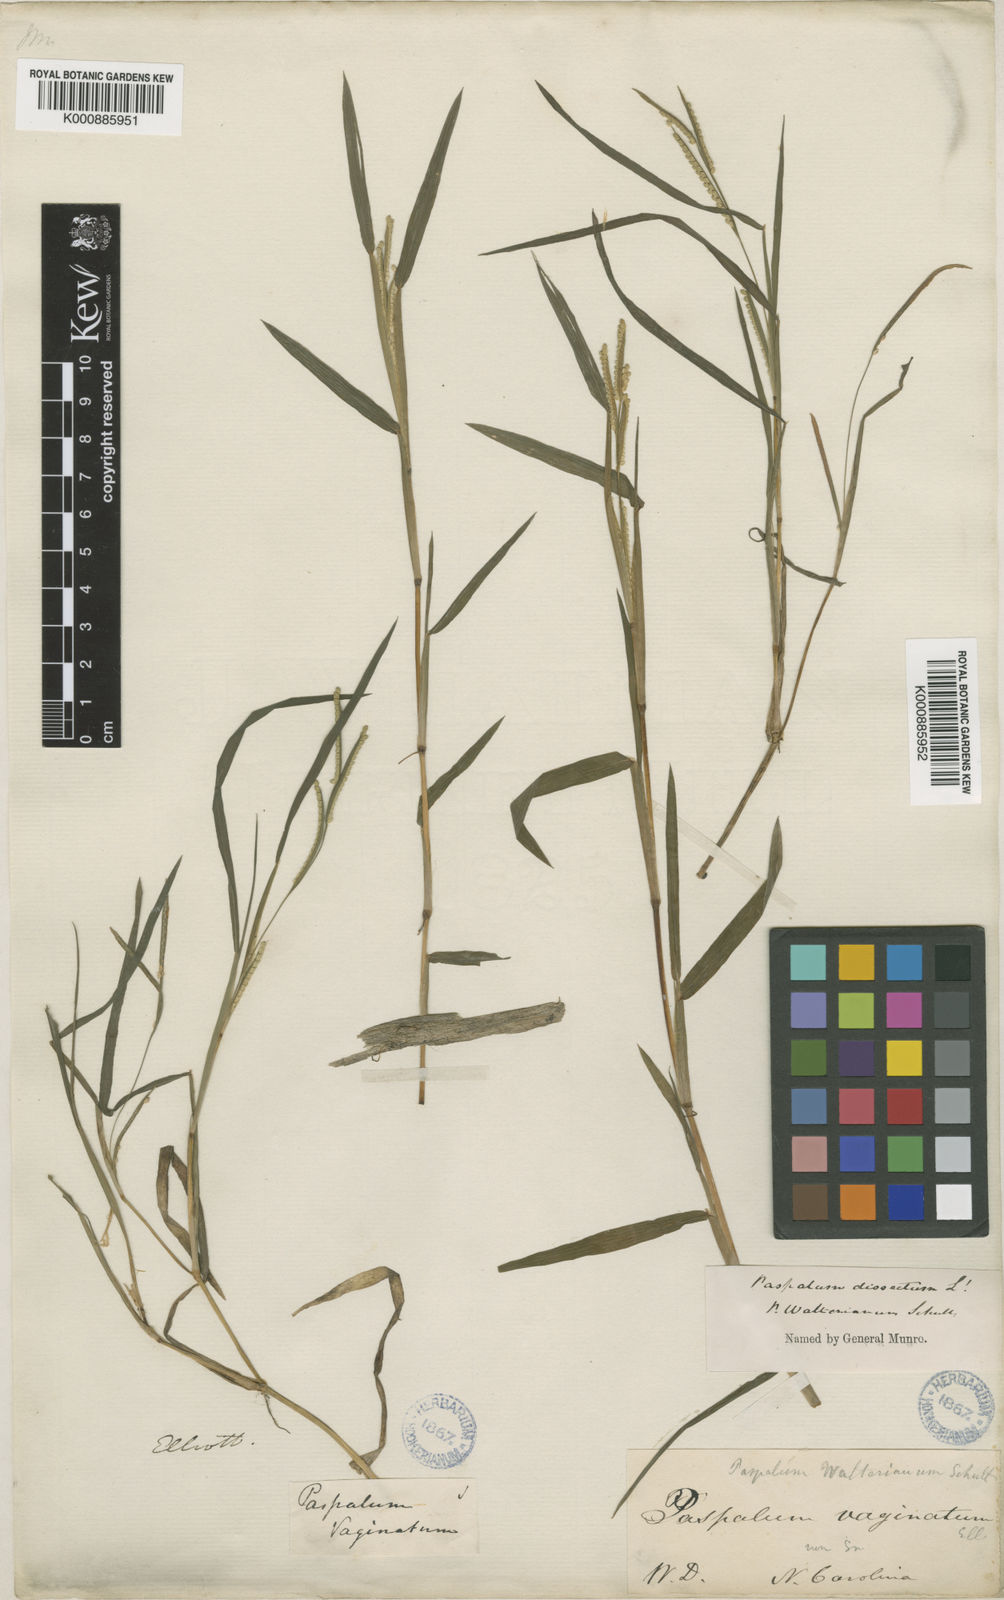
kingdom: Plantae
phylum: Tracheophyta
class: Liliopsida
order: Poales
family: Poaceae
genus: Paspalum
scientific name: Paspalum dissectum
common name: Bead grass
